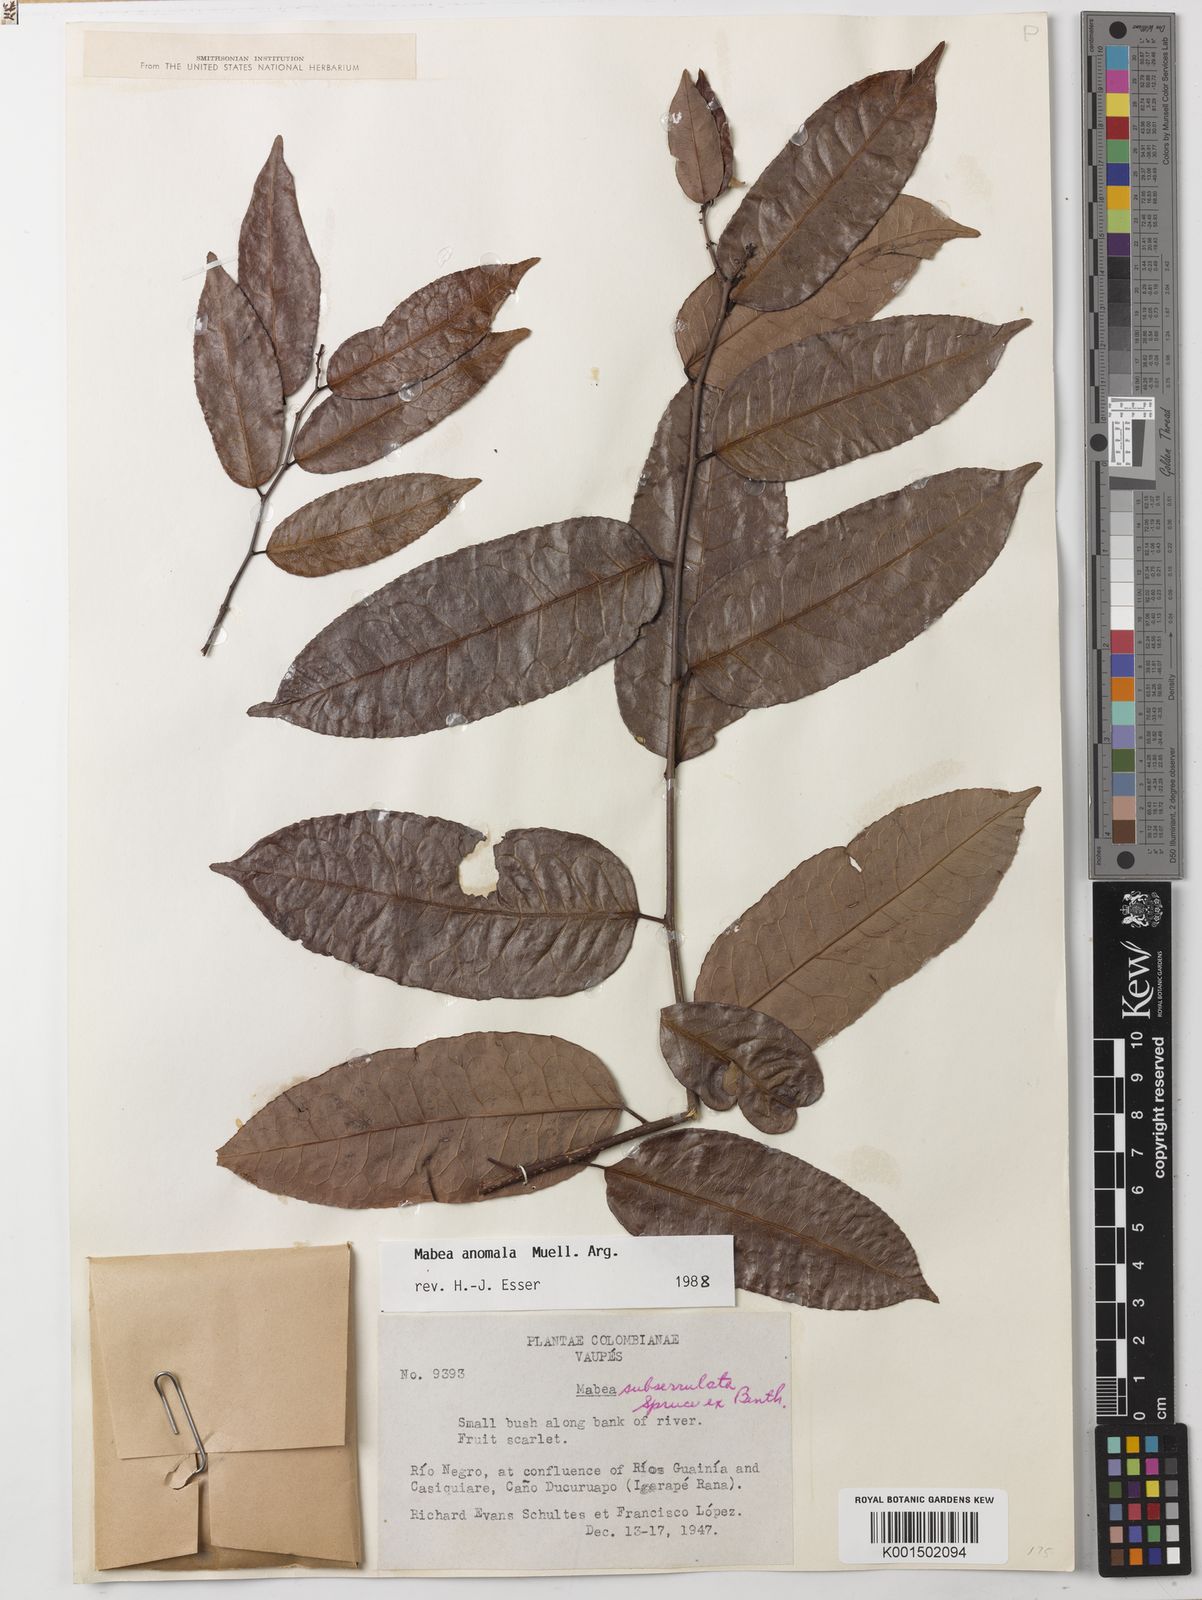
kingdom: Plantae
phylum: Tracheophyta
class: Magnoliopsida
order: Malpighiales
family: Euphorbiaceae
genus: Mabea
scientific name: Mabea anomala
